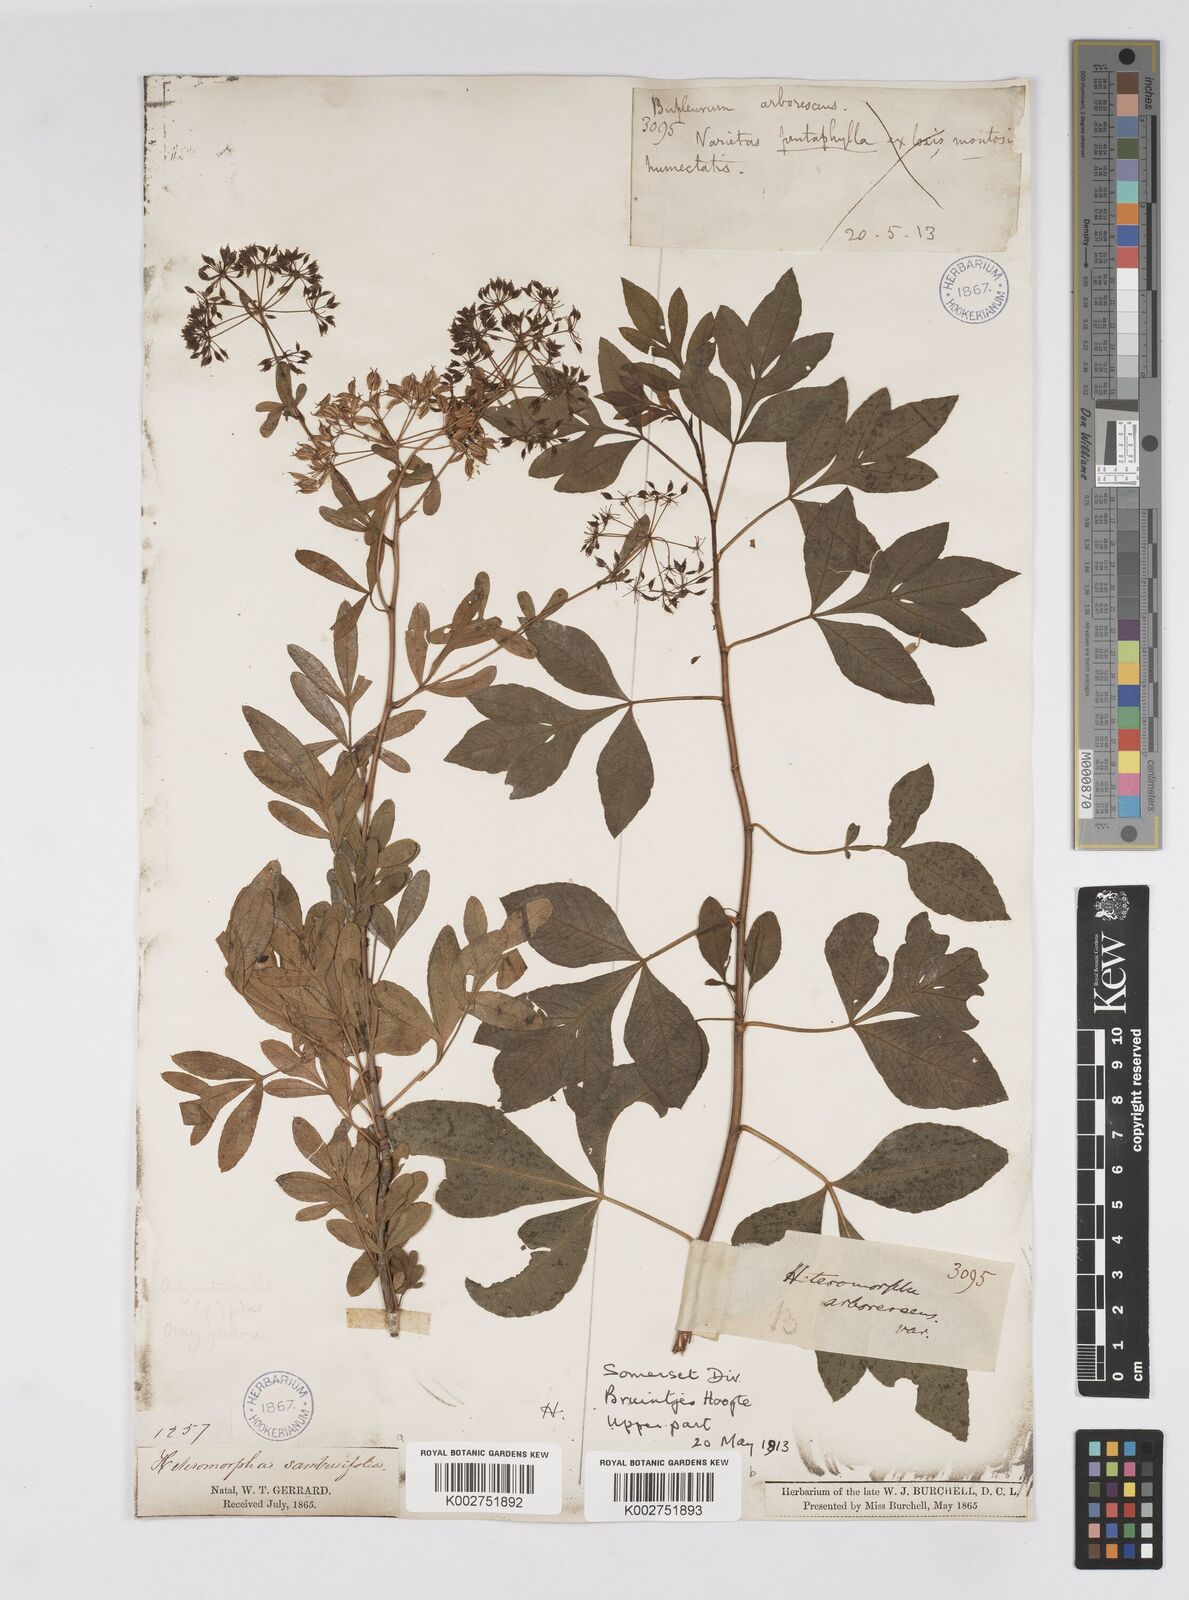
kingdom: Plantae
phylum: Tracheophyta
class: Magnoliopsida
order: Apiales
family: Apiaceae
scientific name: Apiaceae
